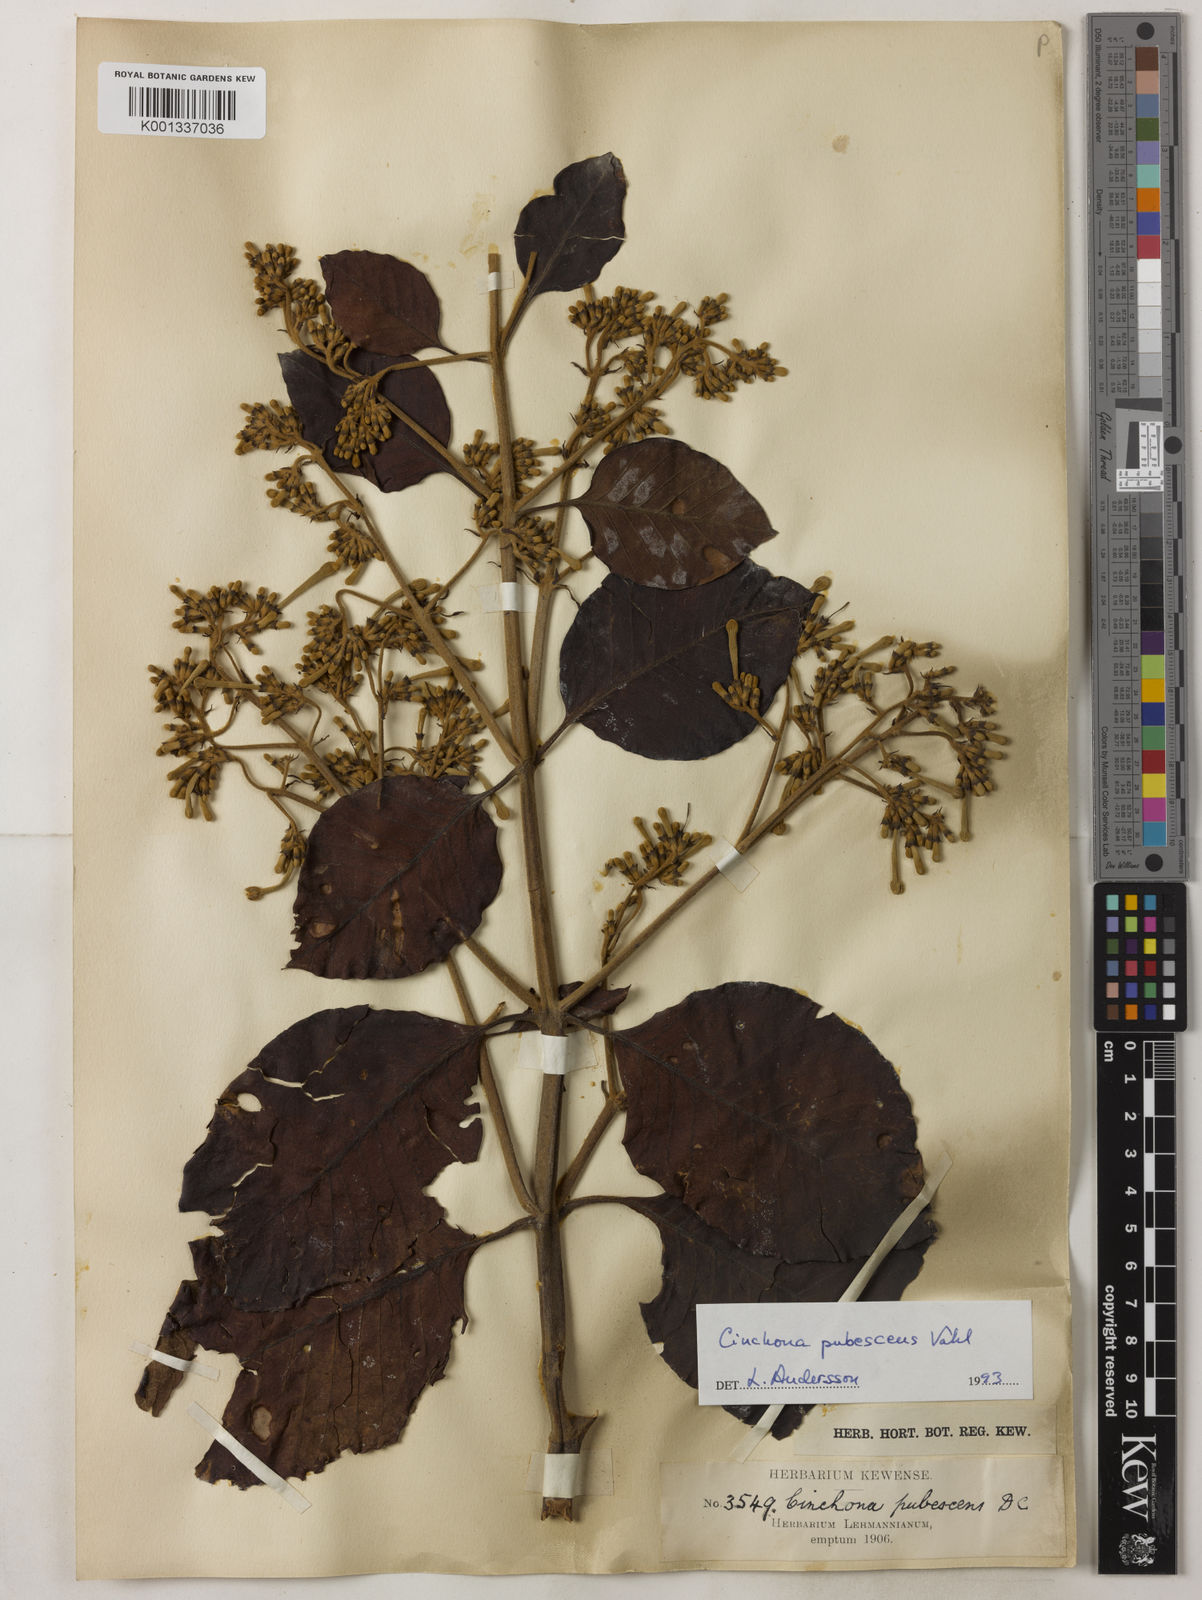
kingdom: Plantae
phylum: Tracheophyta
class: Magnoliopsida
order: Gentianales
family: Rubiaceae
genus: Cinchona
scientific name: Cinchona pubescens
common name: Quinine
